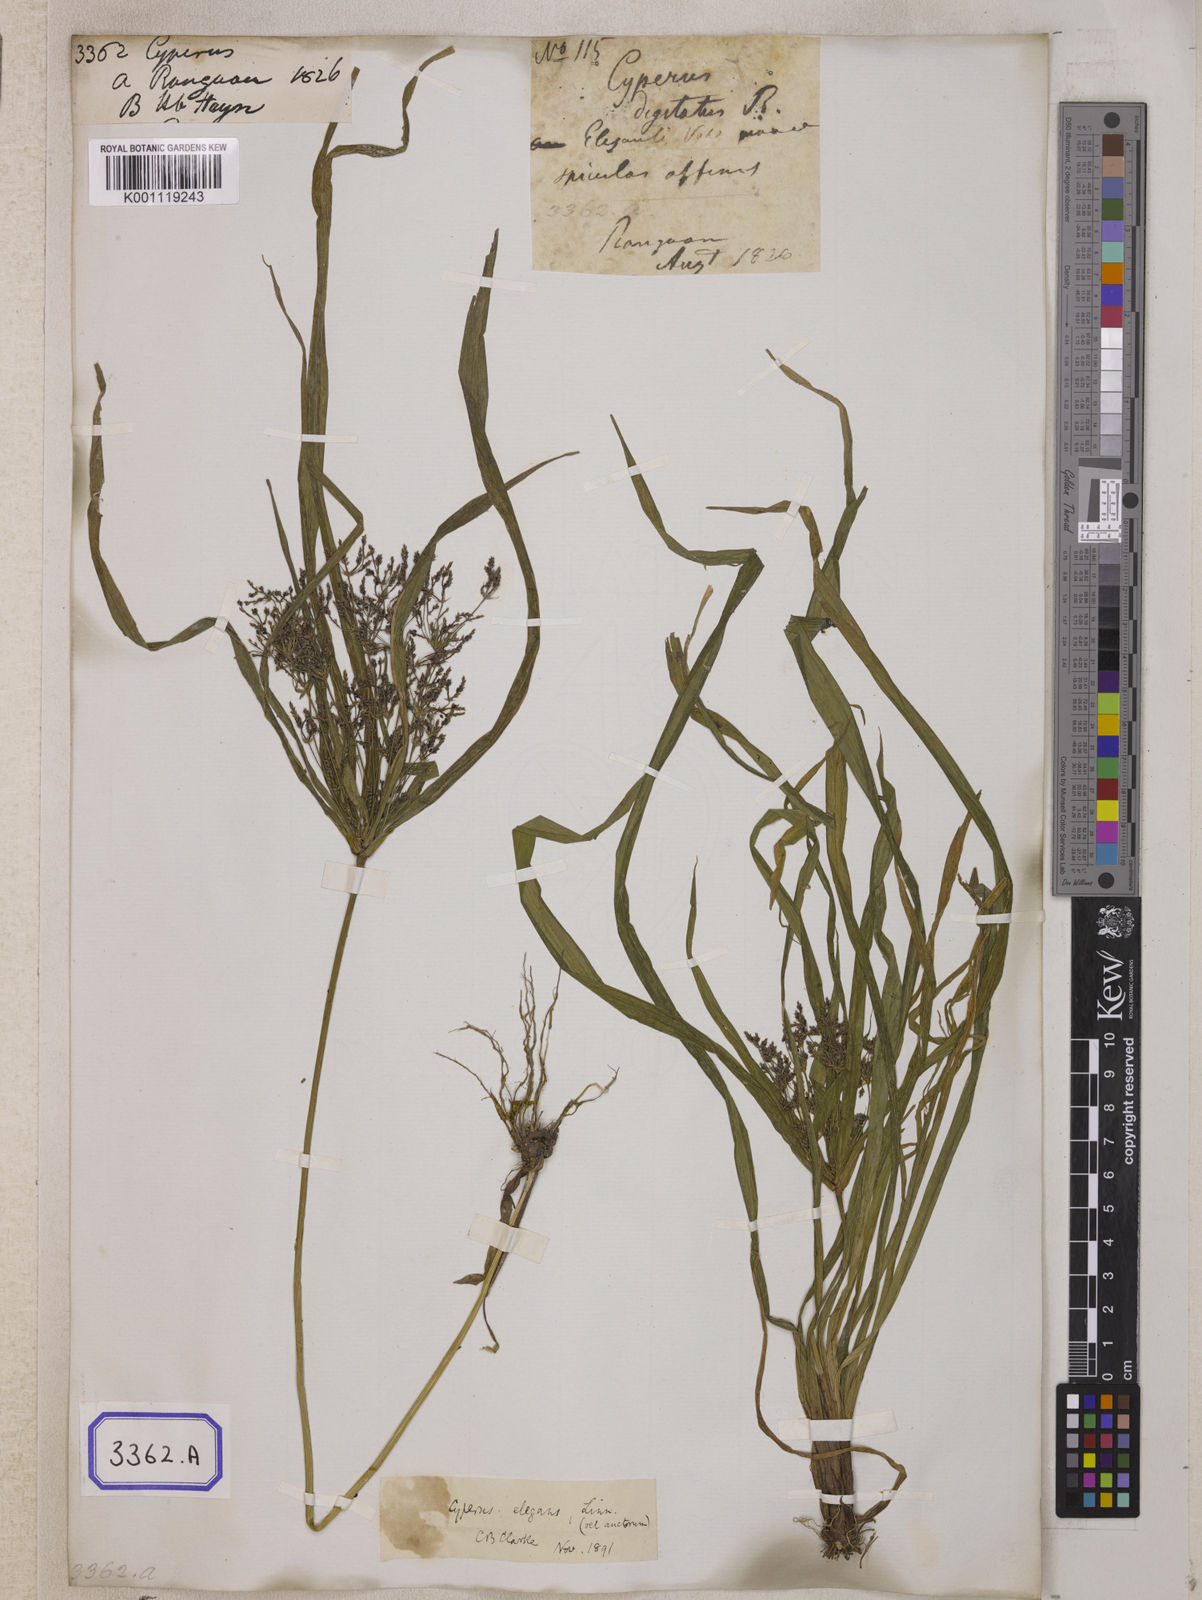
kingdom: Plantae
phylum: Tracheophyta
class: Liliopsida
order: Poales
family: Cyperaceae
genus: Cyperus
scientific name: Cyperus
